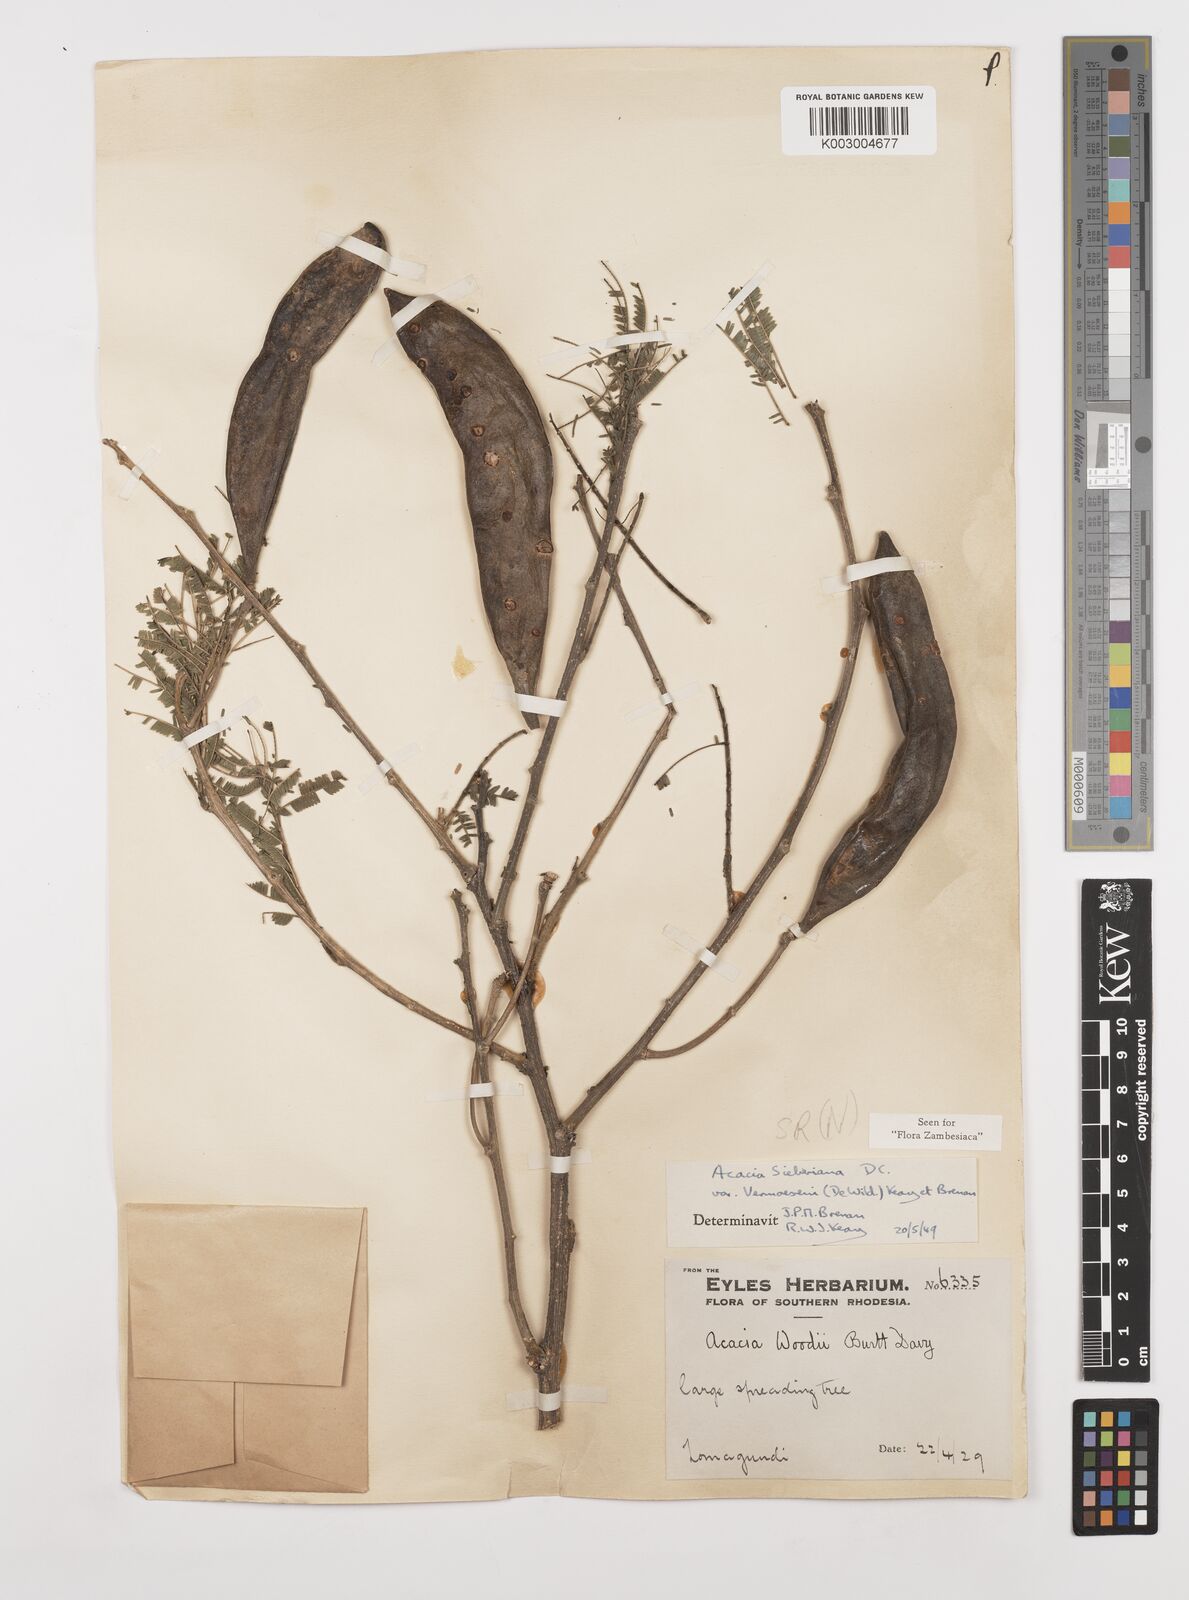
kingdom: Plantae
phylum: Tracheophyta
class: Magnoliopsida
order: Fabales
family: Fabaceae
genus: Vachellia
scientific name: Vachellia sieberiana
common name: Flat-topped thorn
